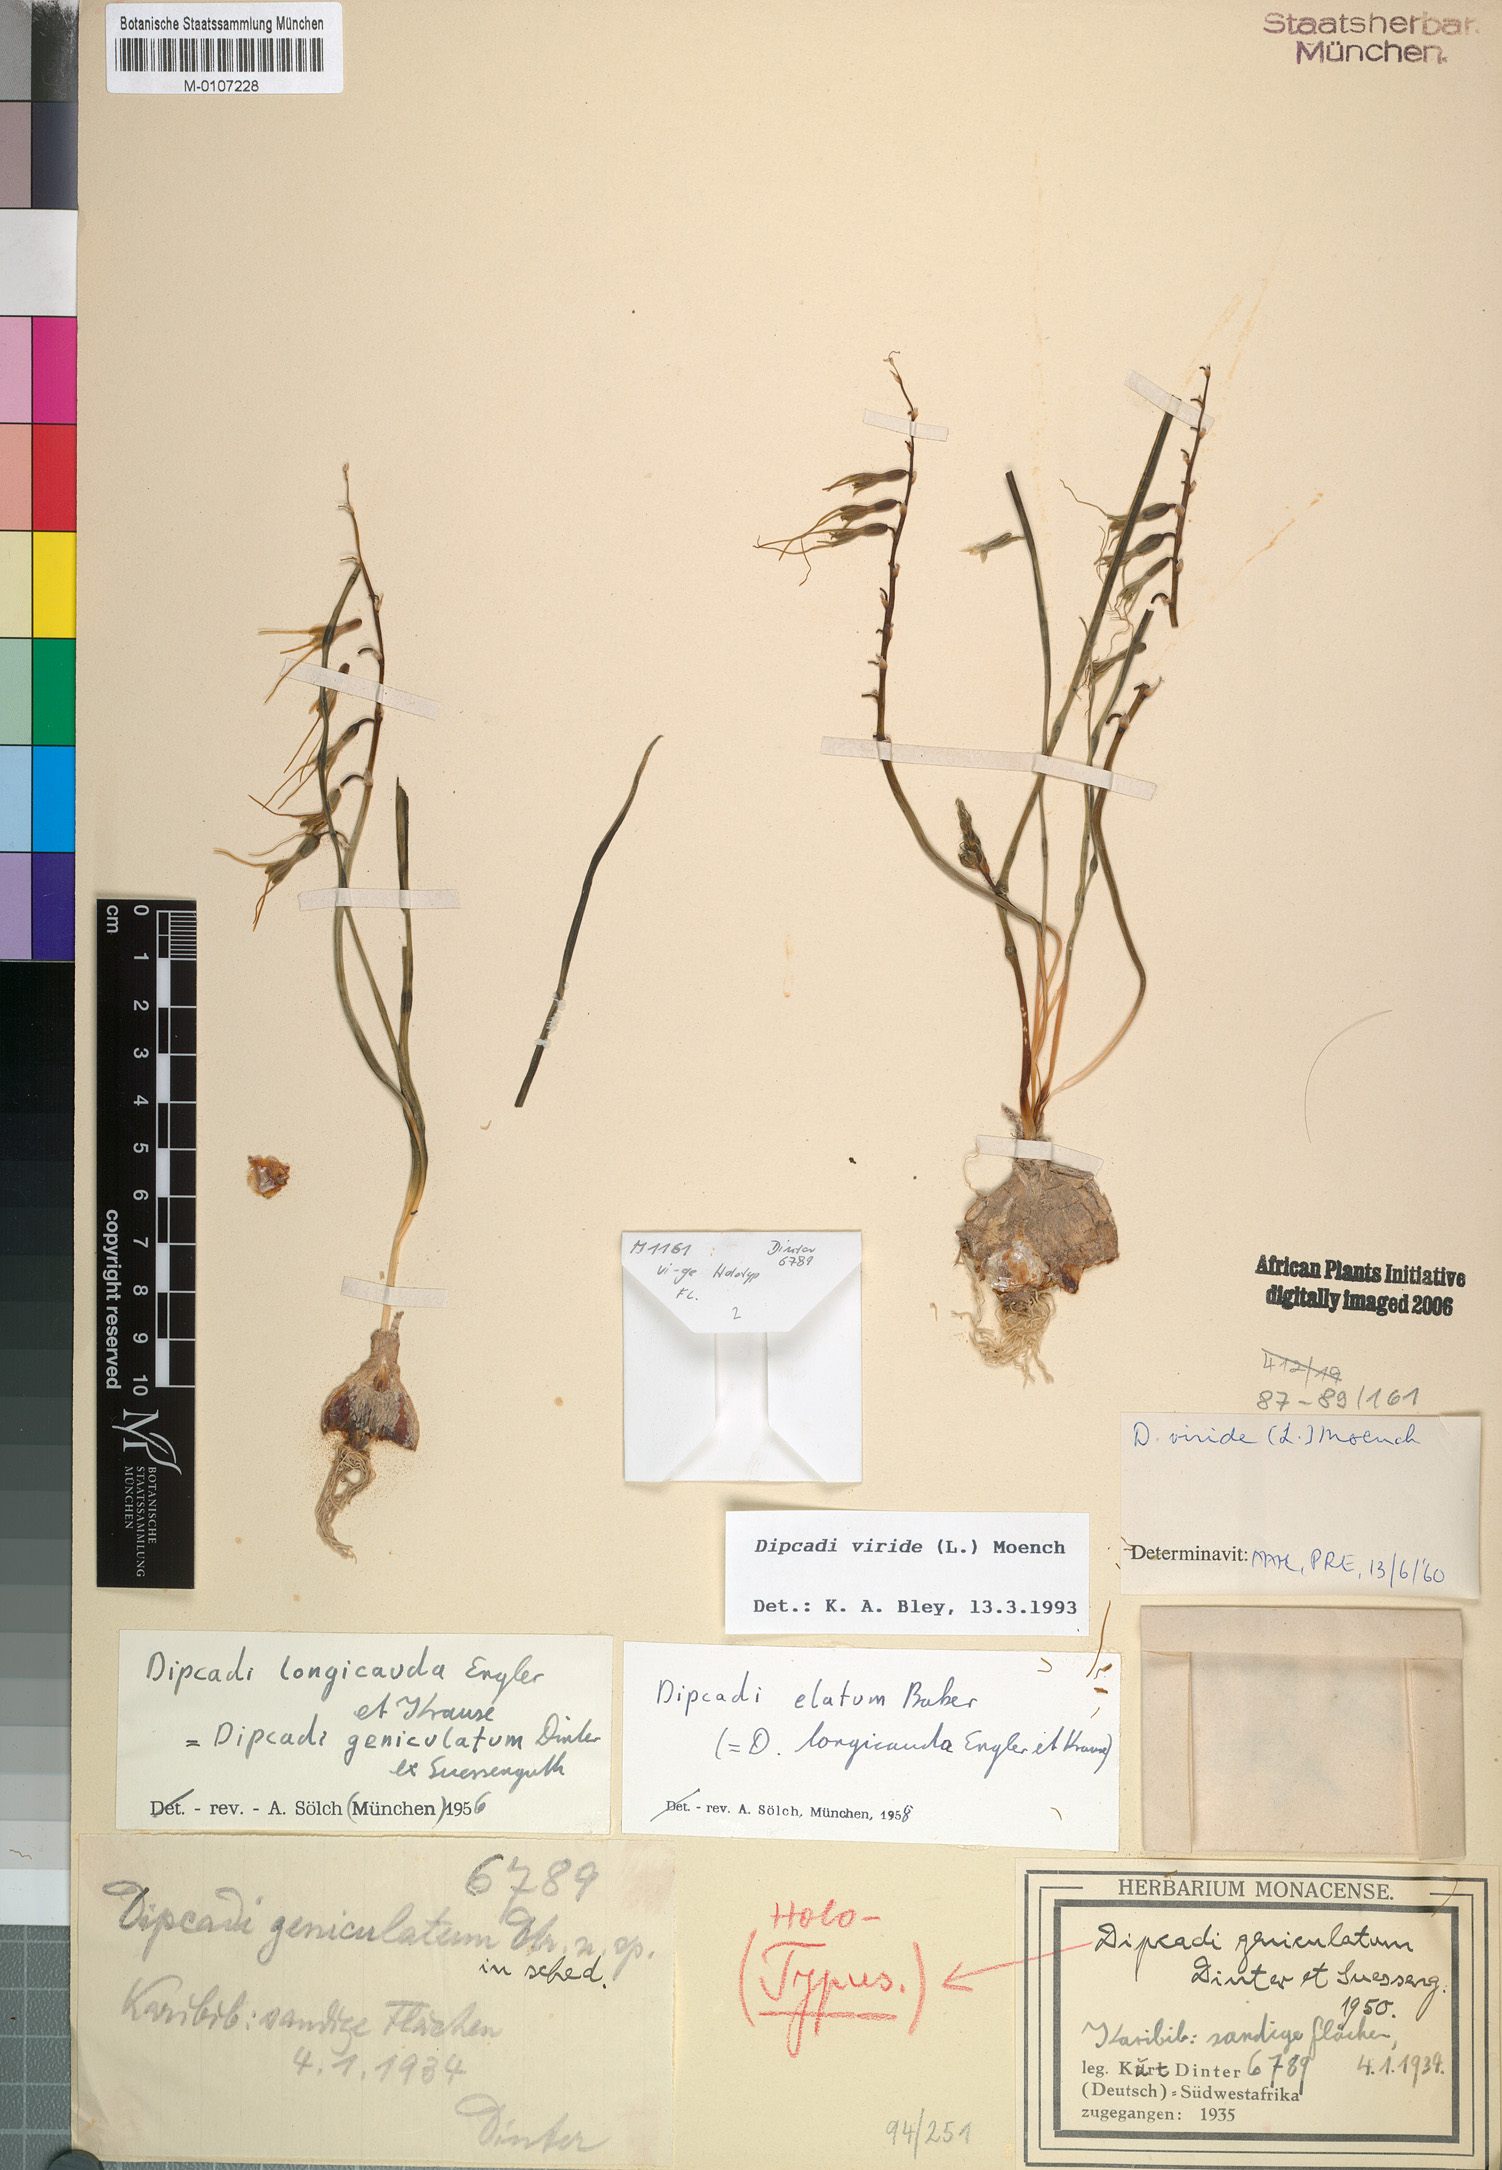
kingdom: Plantae
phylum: Tracheophyta
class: Liliopsida
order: Asparagales
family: Asparagaceae
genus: Dipcadi
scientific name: Dipcadi viride
